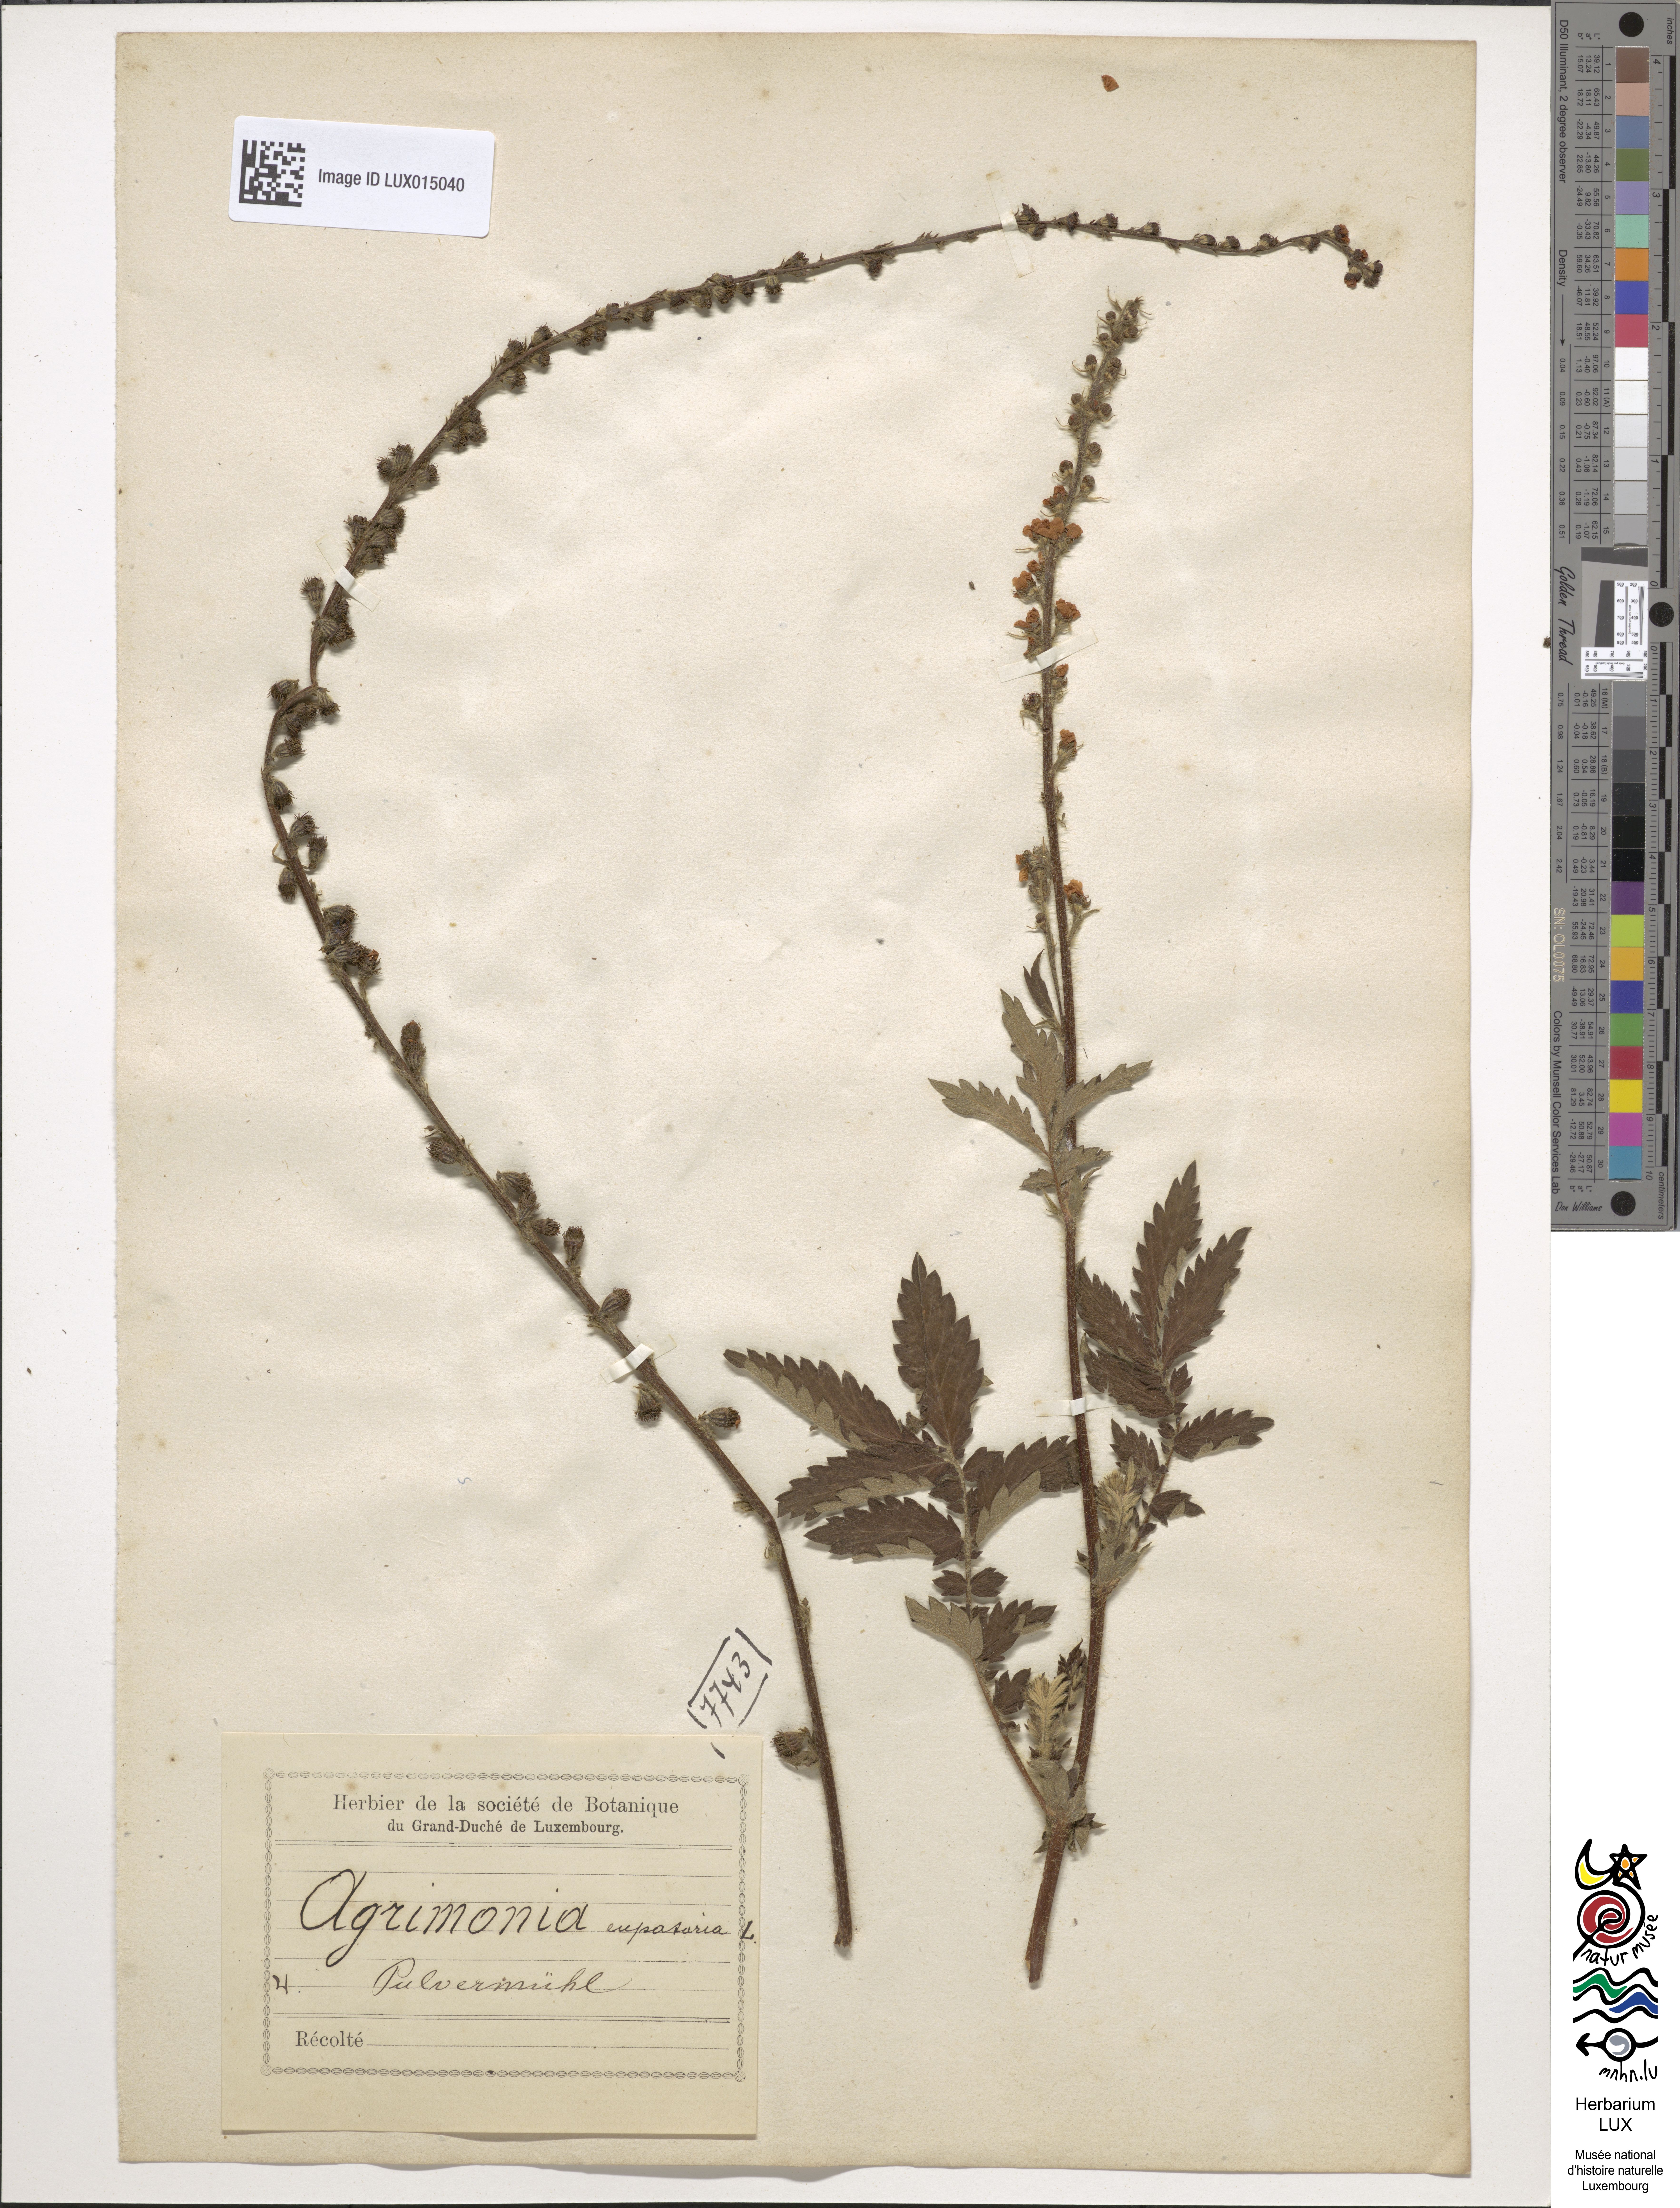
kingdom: Plantae
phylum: Tracheophyta
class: Magnoliopsida
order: Rosales
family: Rosaceae
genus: Agrimonia
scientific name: Agrimonia eupatoria
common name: Agrimony
